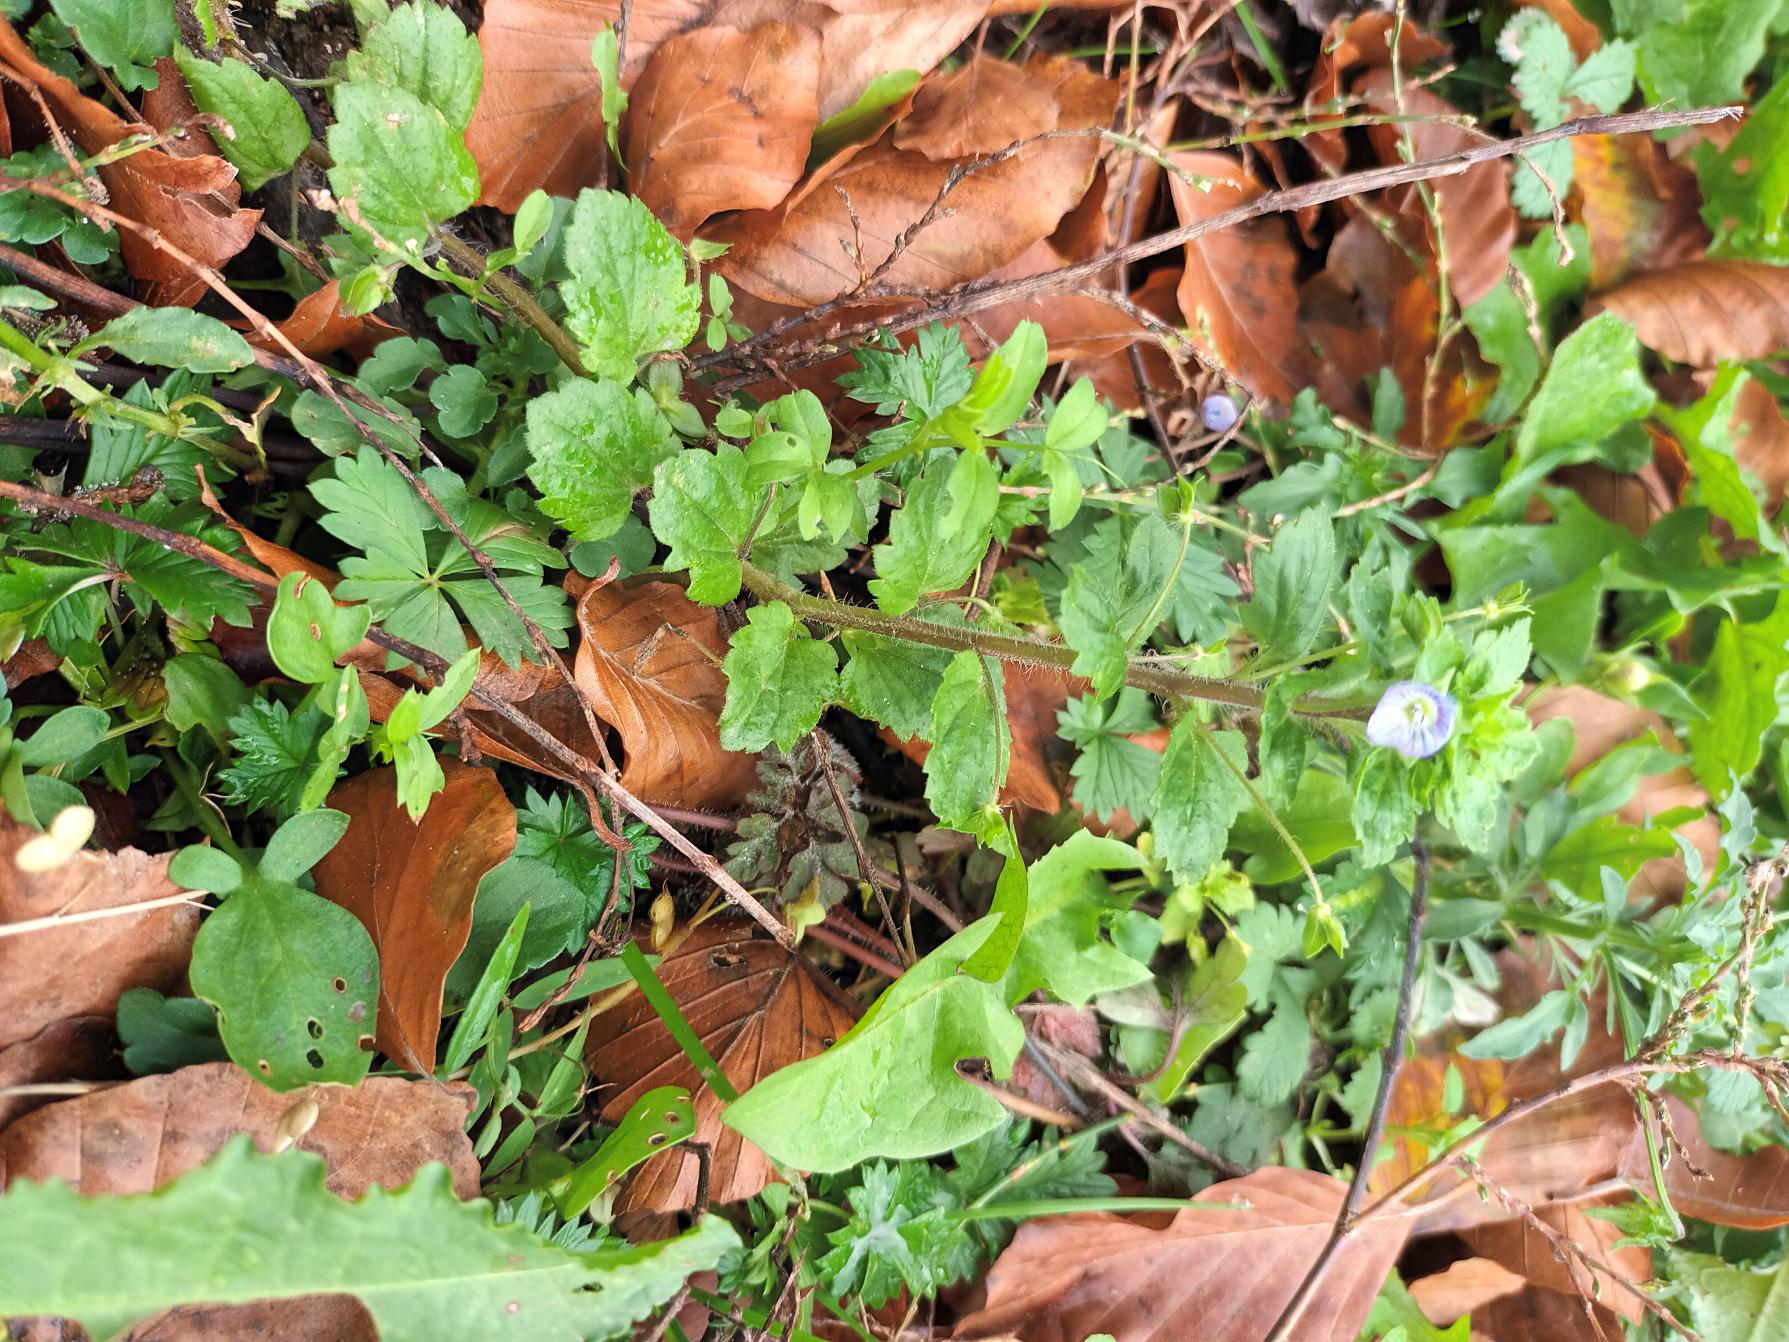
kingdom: Plantae
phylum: Tracheophyta
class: Magnoliopsida
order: Lamiales
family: Plantaginaceae
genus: Veronica
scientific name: Veronica persica
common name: Storkronet ærenpris
